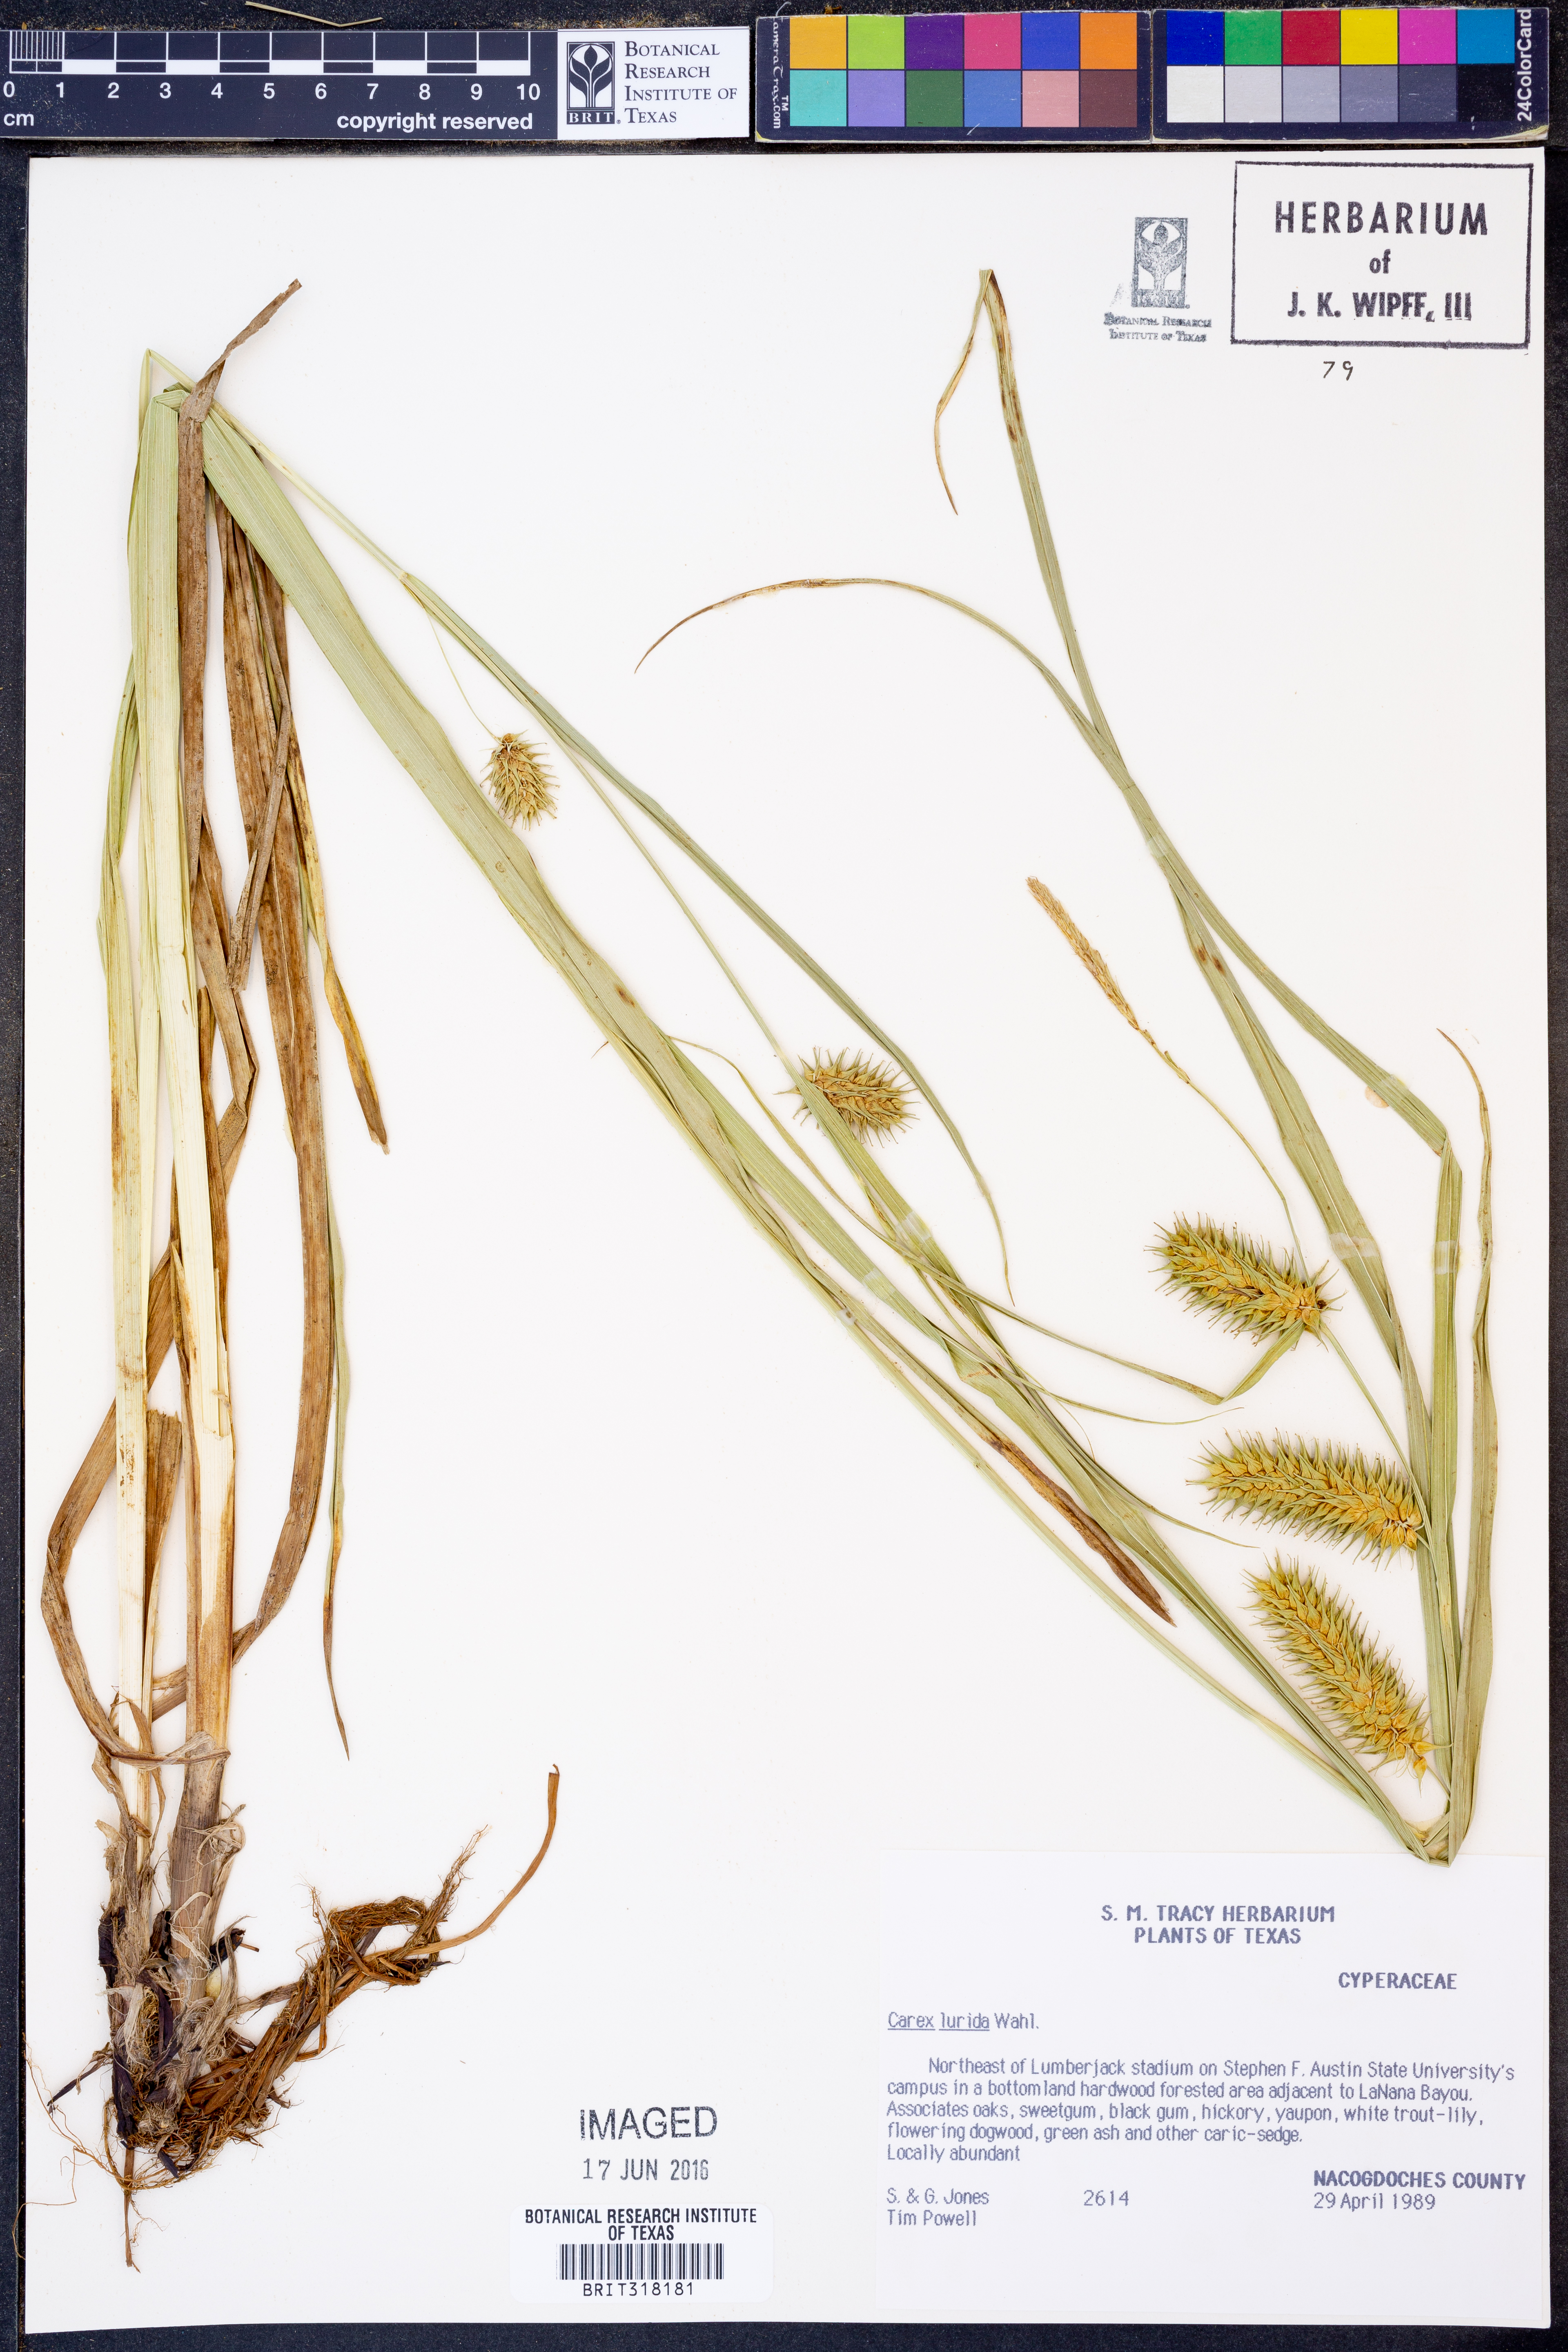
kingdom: Plantae
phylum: Tracheophyta
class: Liliopsida
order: Poales
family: Cyperaceae
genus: Carex
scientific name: Carex lurida
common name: Sallow sedge
